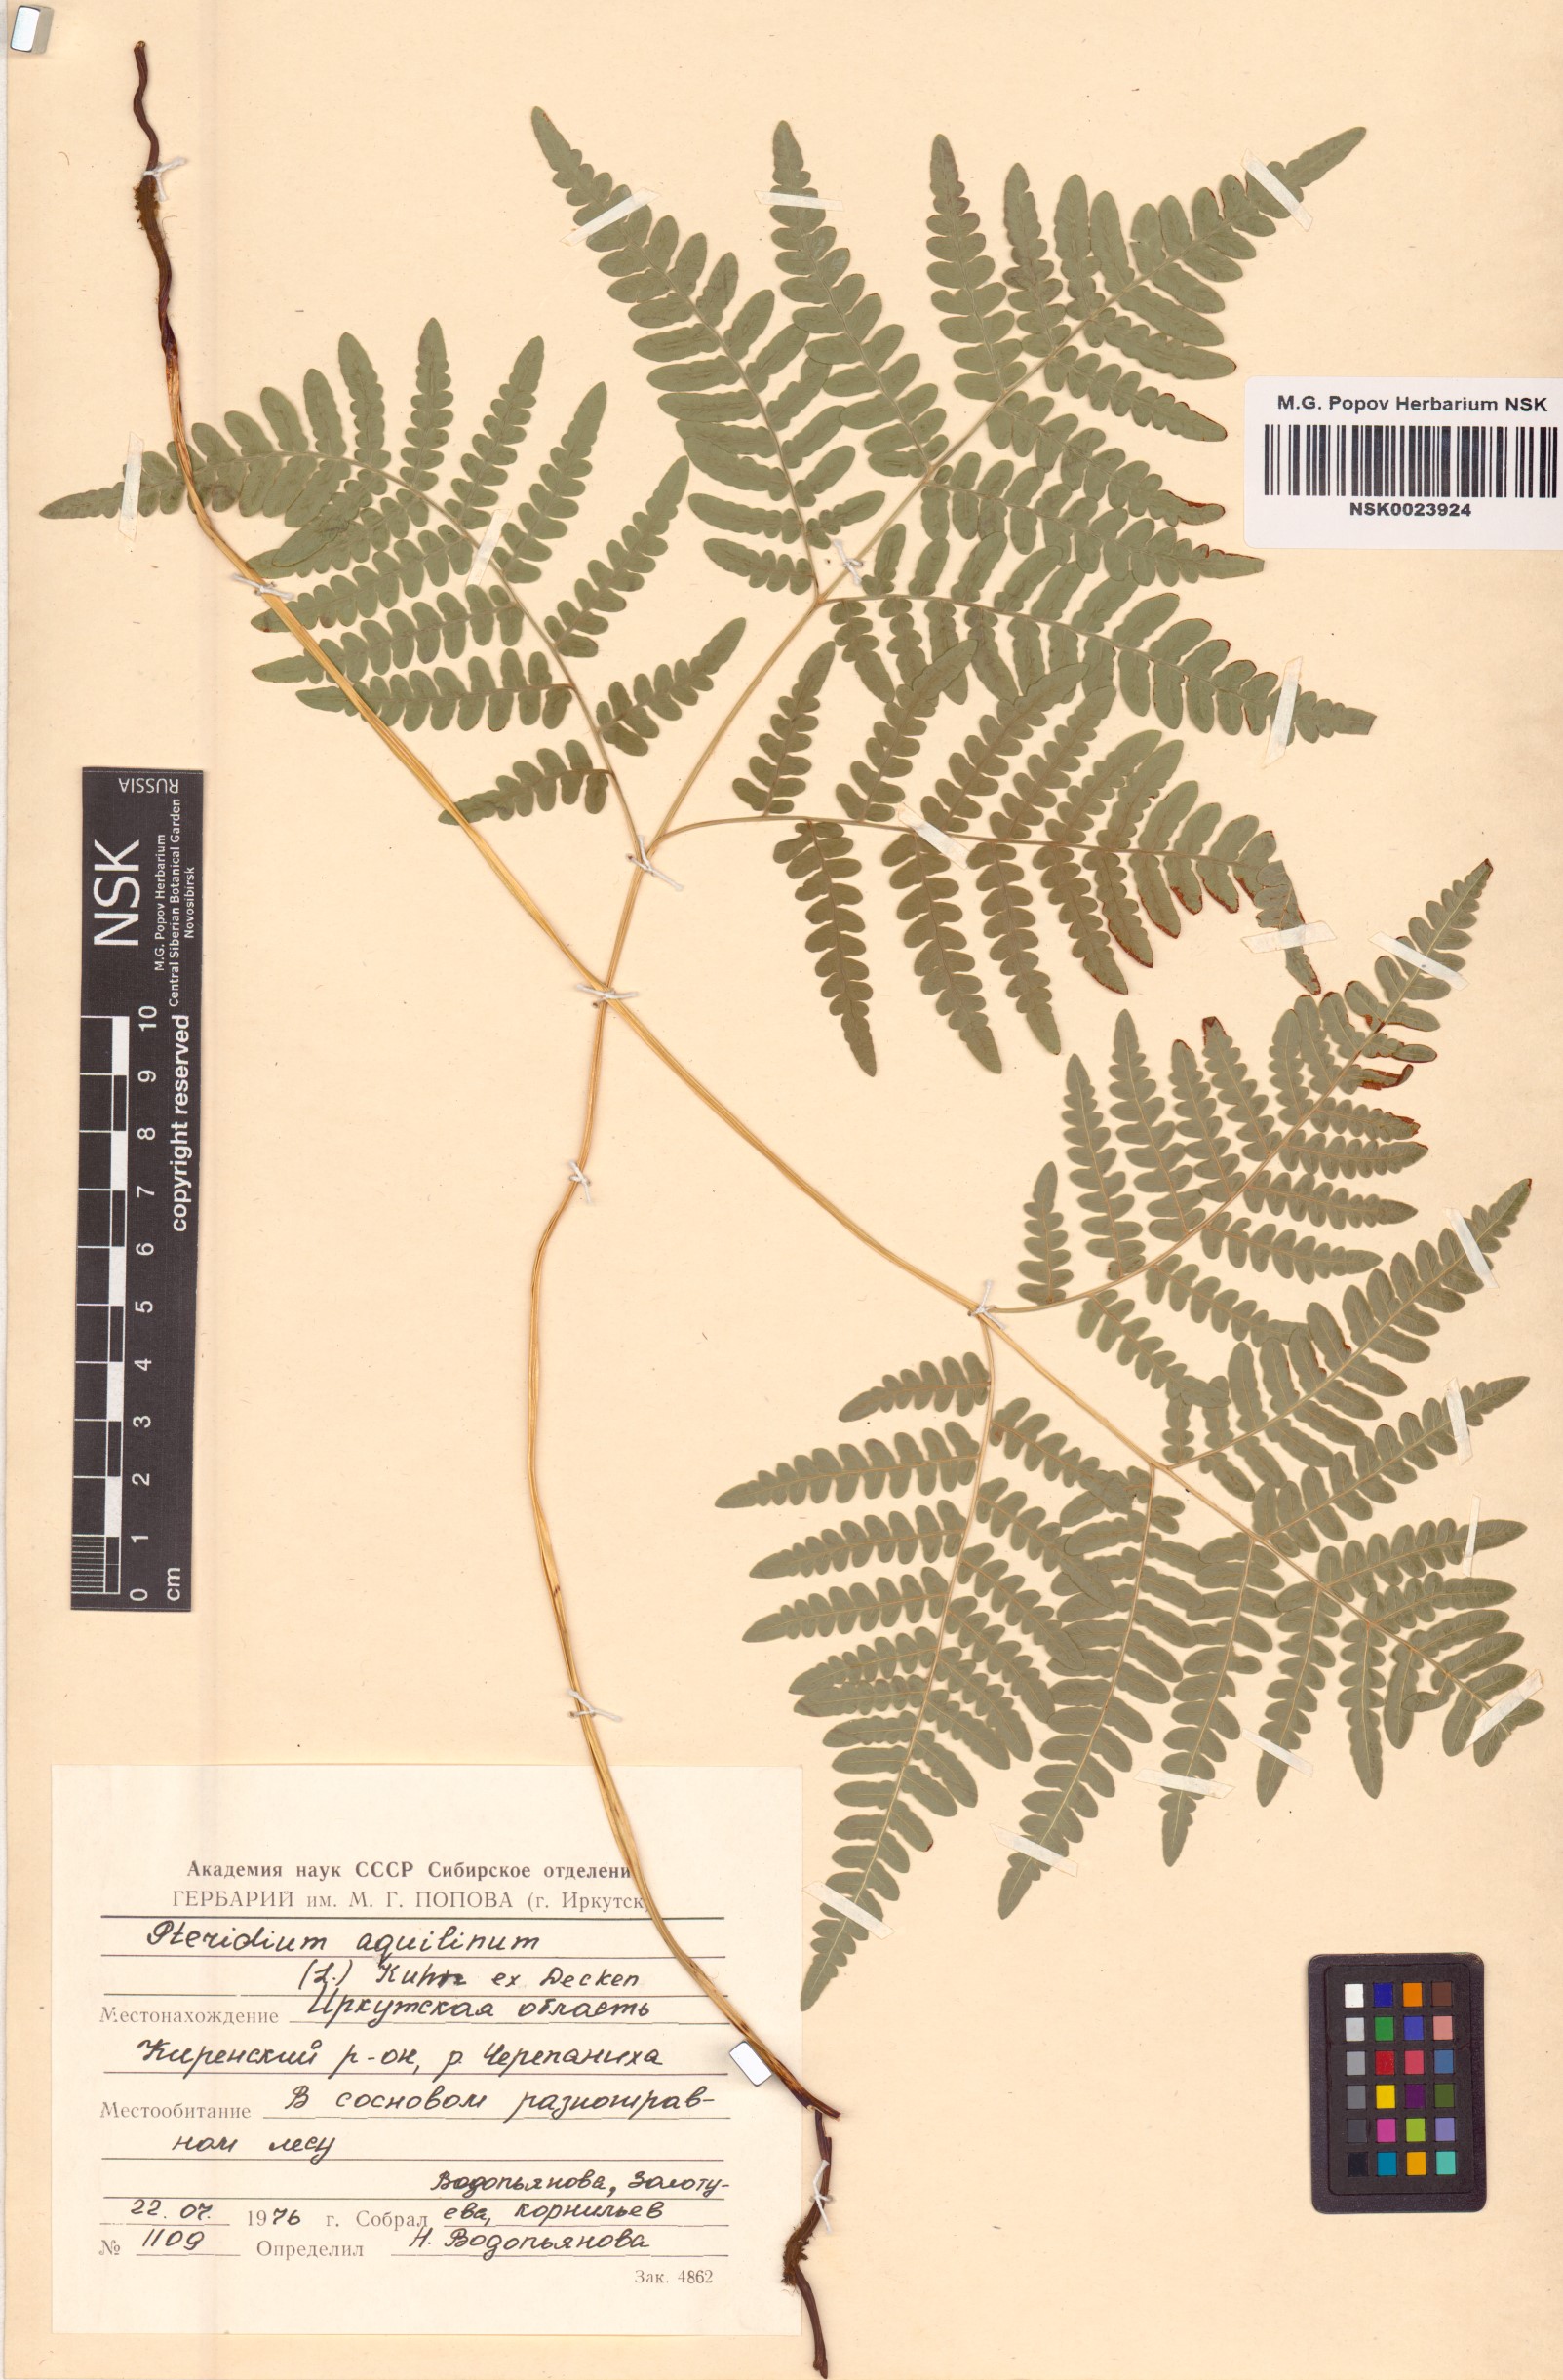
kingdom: Plantae
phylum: Tracheophyta
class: Polypodiopsida
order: Polypodiales
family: Dennstaedtiaceae
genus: Pteridium
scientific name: Pteridium aquilinum
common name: Bracken
